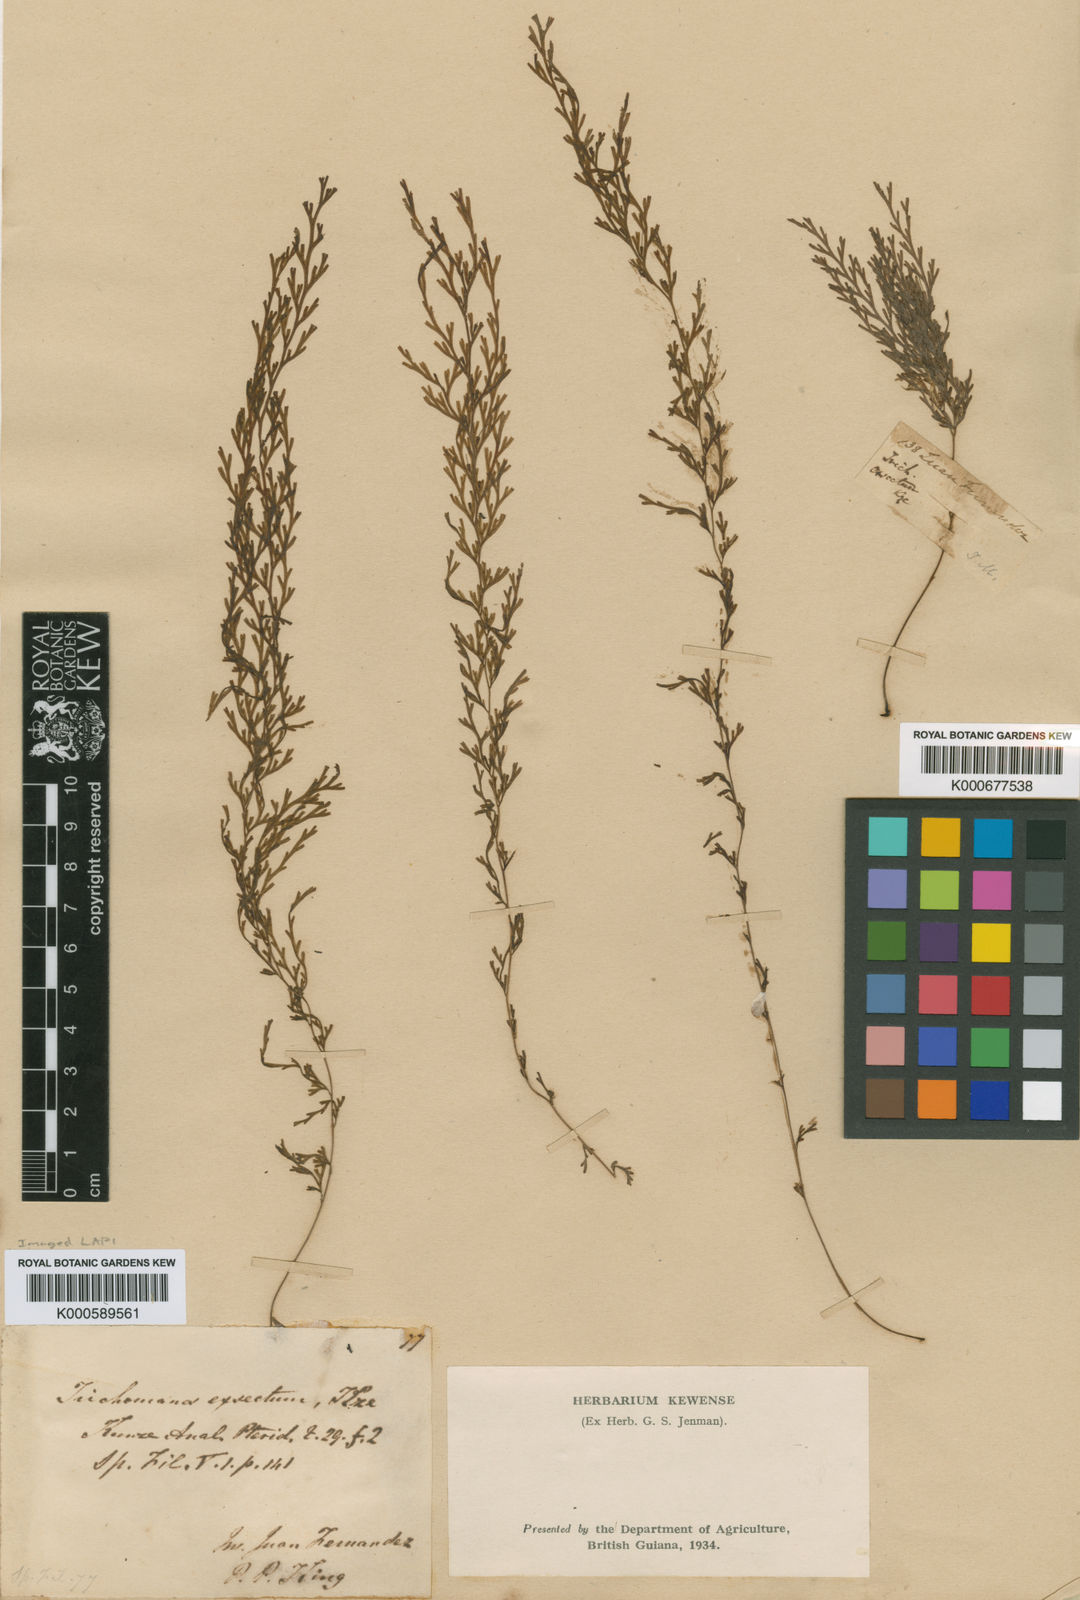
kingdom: Plantae
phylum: Tracheophyta
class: Polypodiopsida
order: Hymenophyllales
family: Hymenophyllaceae
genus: Polyphlebium
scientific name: Polyphlebium exsectum
